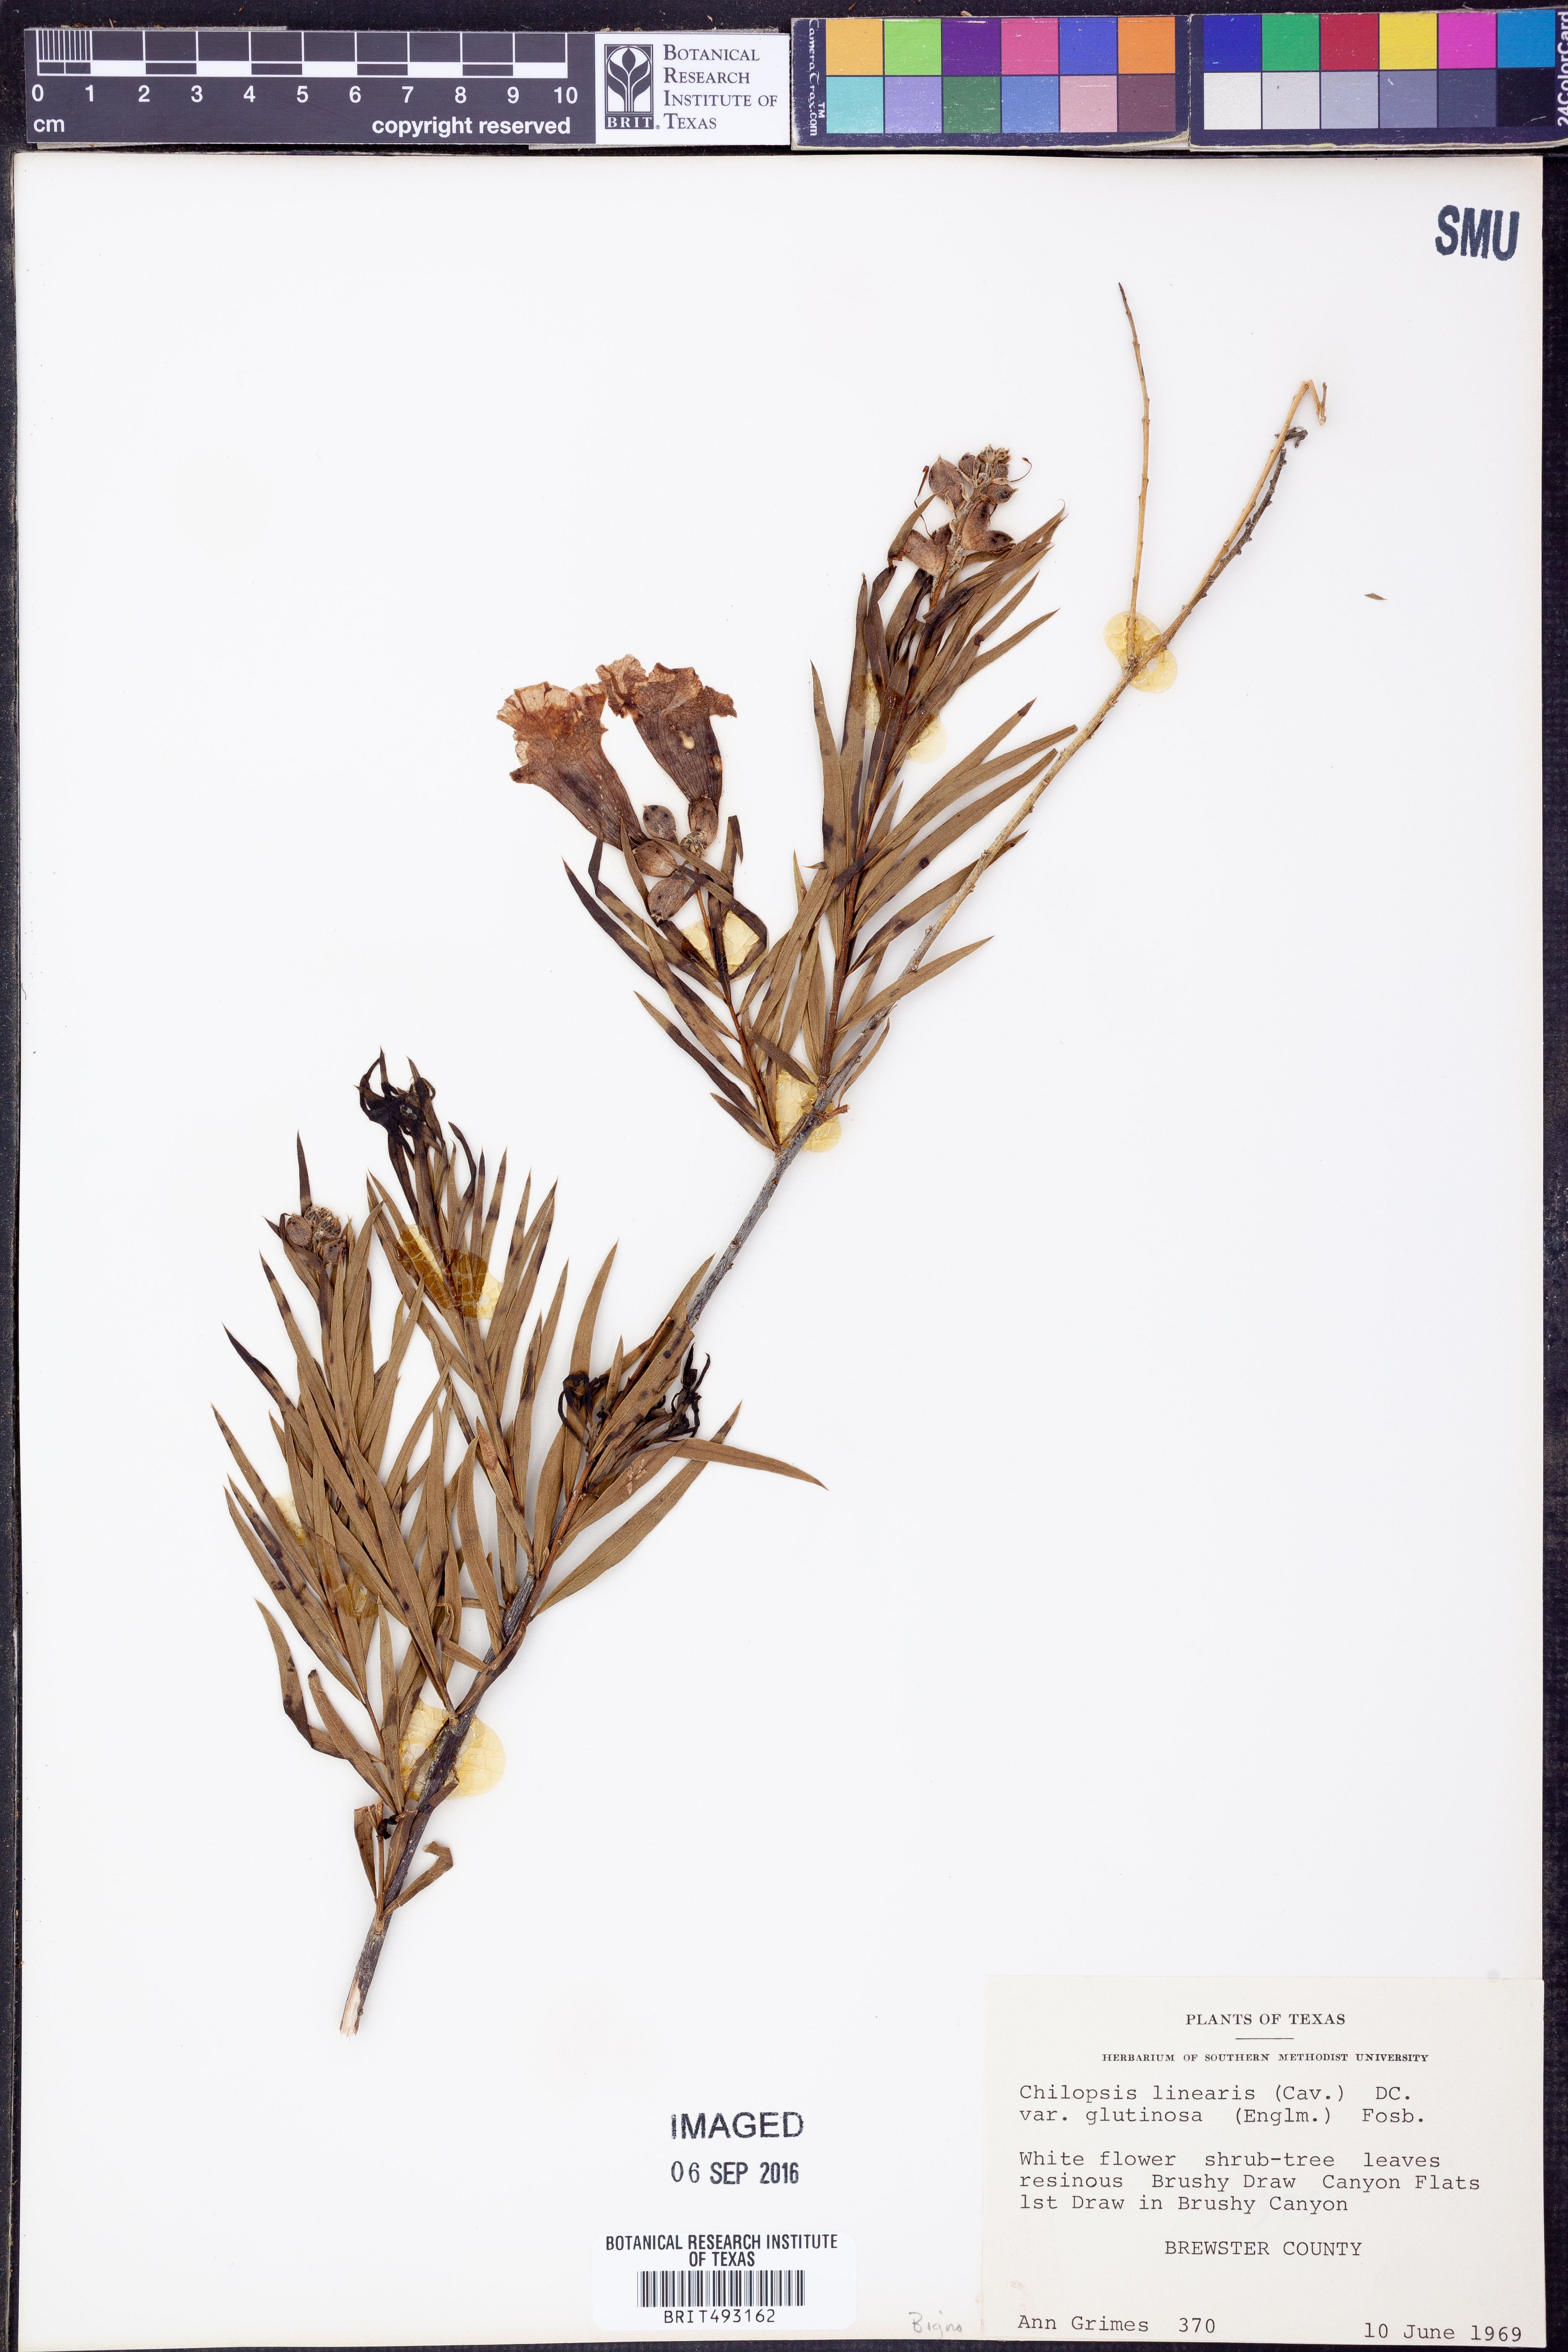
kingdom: Plantae
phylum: Tracheophyta
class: Magnoliopsida
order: Lamiales
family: Bignoniaceae
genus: Chilopsis
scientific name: Chilopsis linearis
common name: Desert-willow
